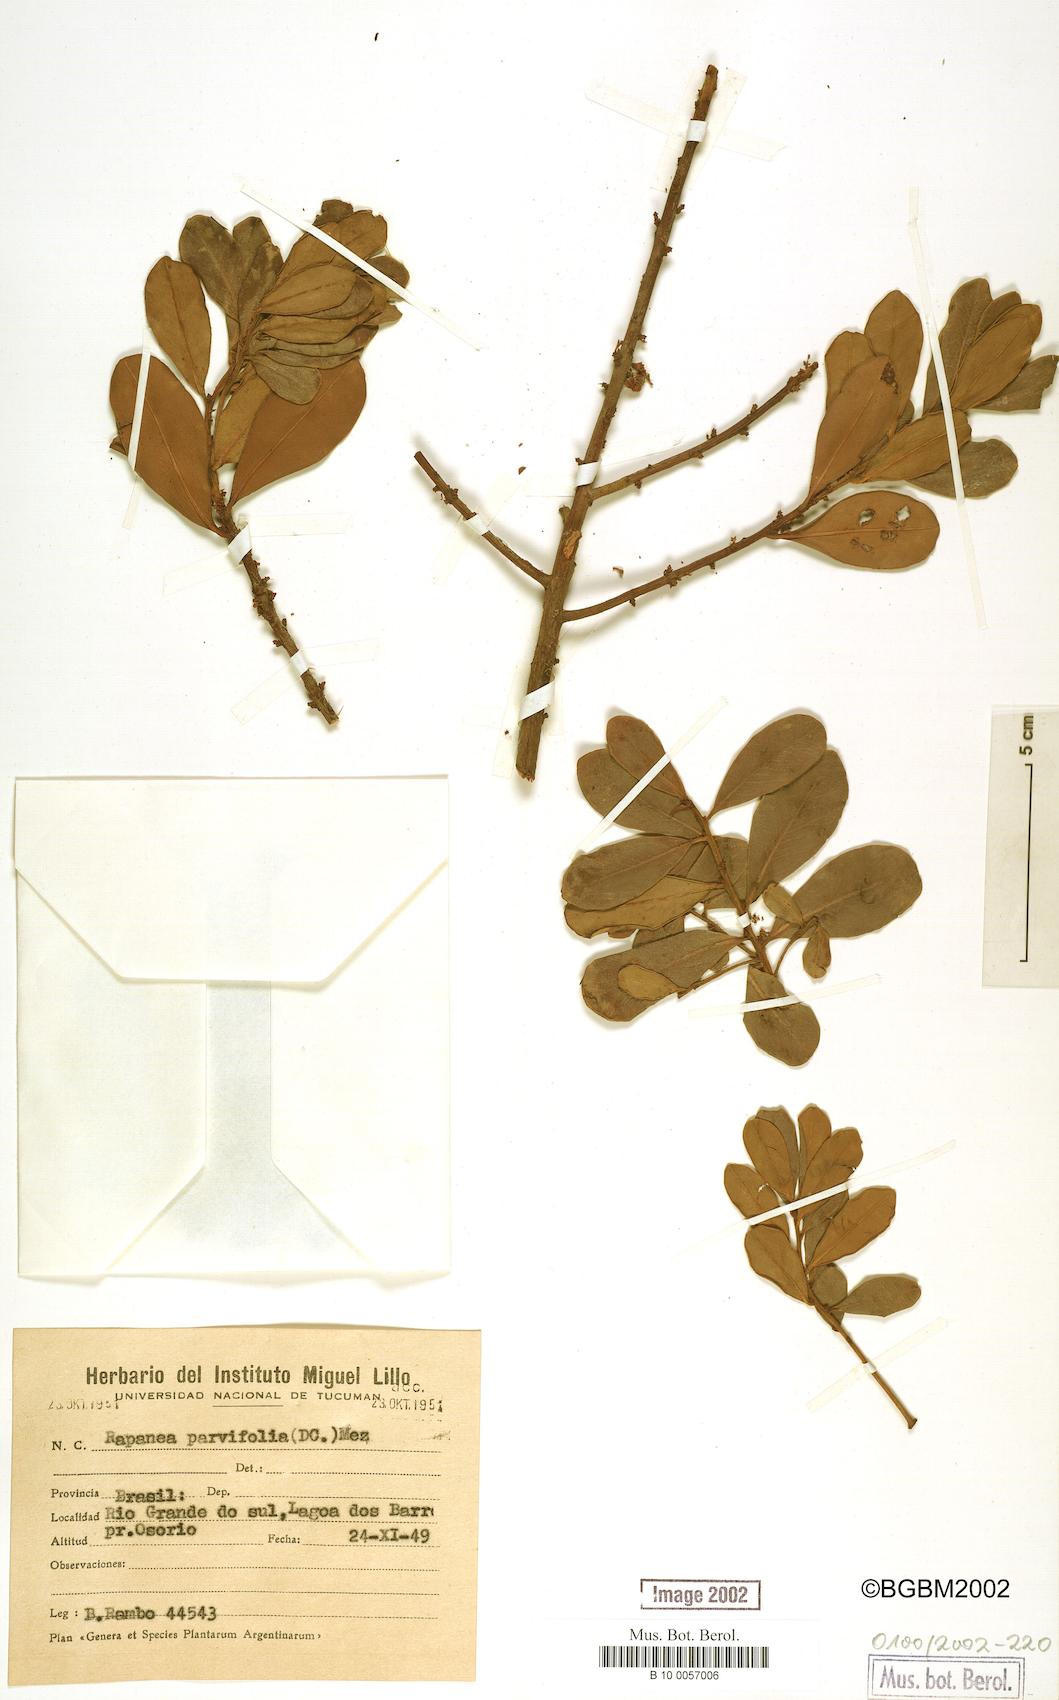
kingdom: Plantae
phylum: Tracheophyta
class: Magnoliopsida
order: Ericales
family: Primulaceae
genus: Myrsine
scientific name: Myrsine parvifolia
